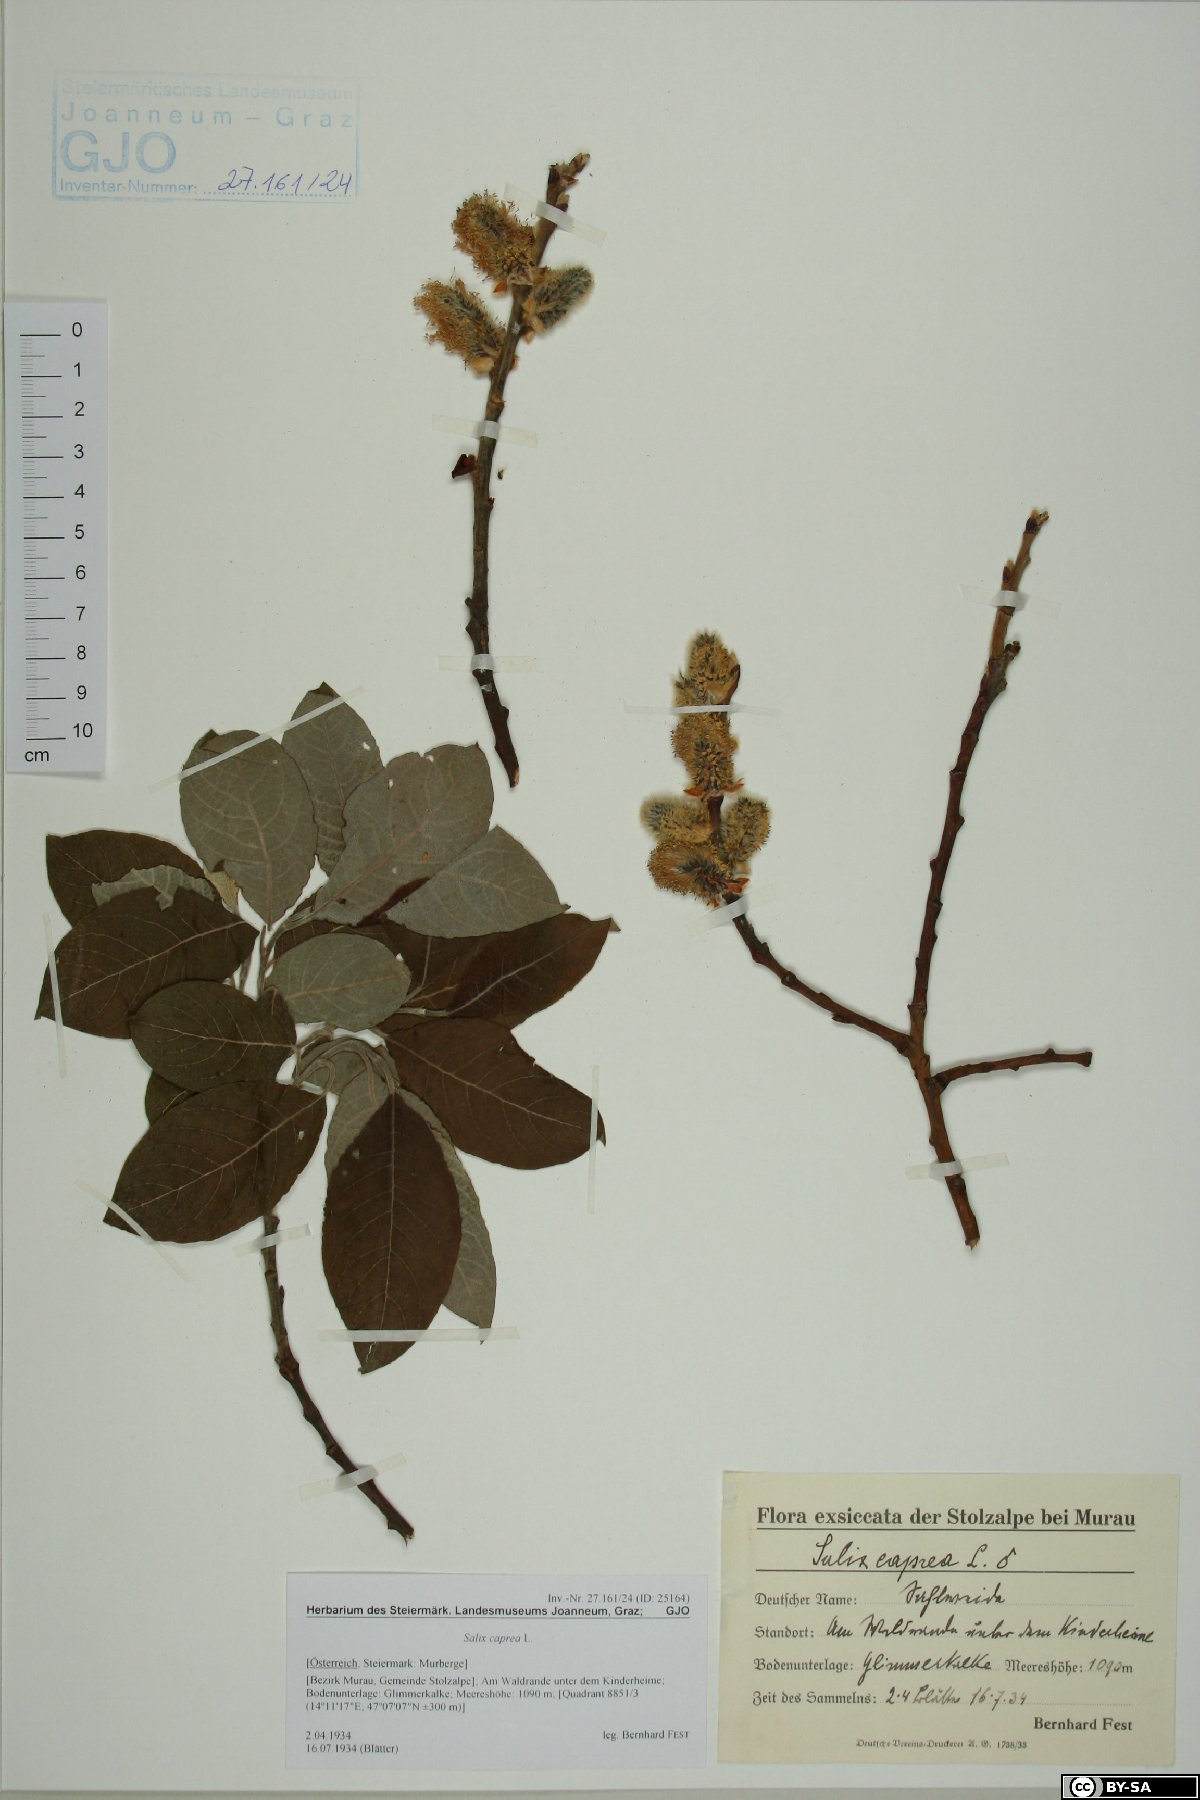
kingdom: Plantae
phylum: Tracheophyta
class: Magnoliopsida
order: Malpighiales
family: Salicaceae
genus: Salix
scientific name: Salix caprea
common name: Goat willow
